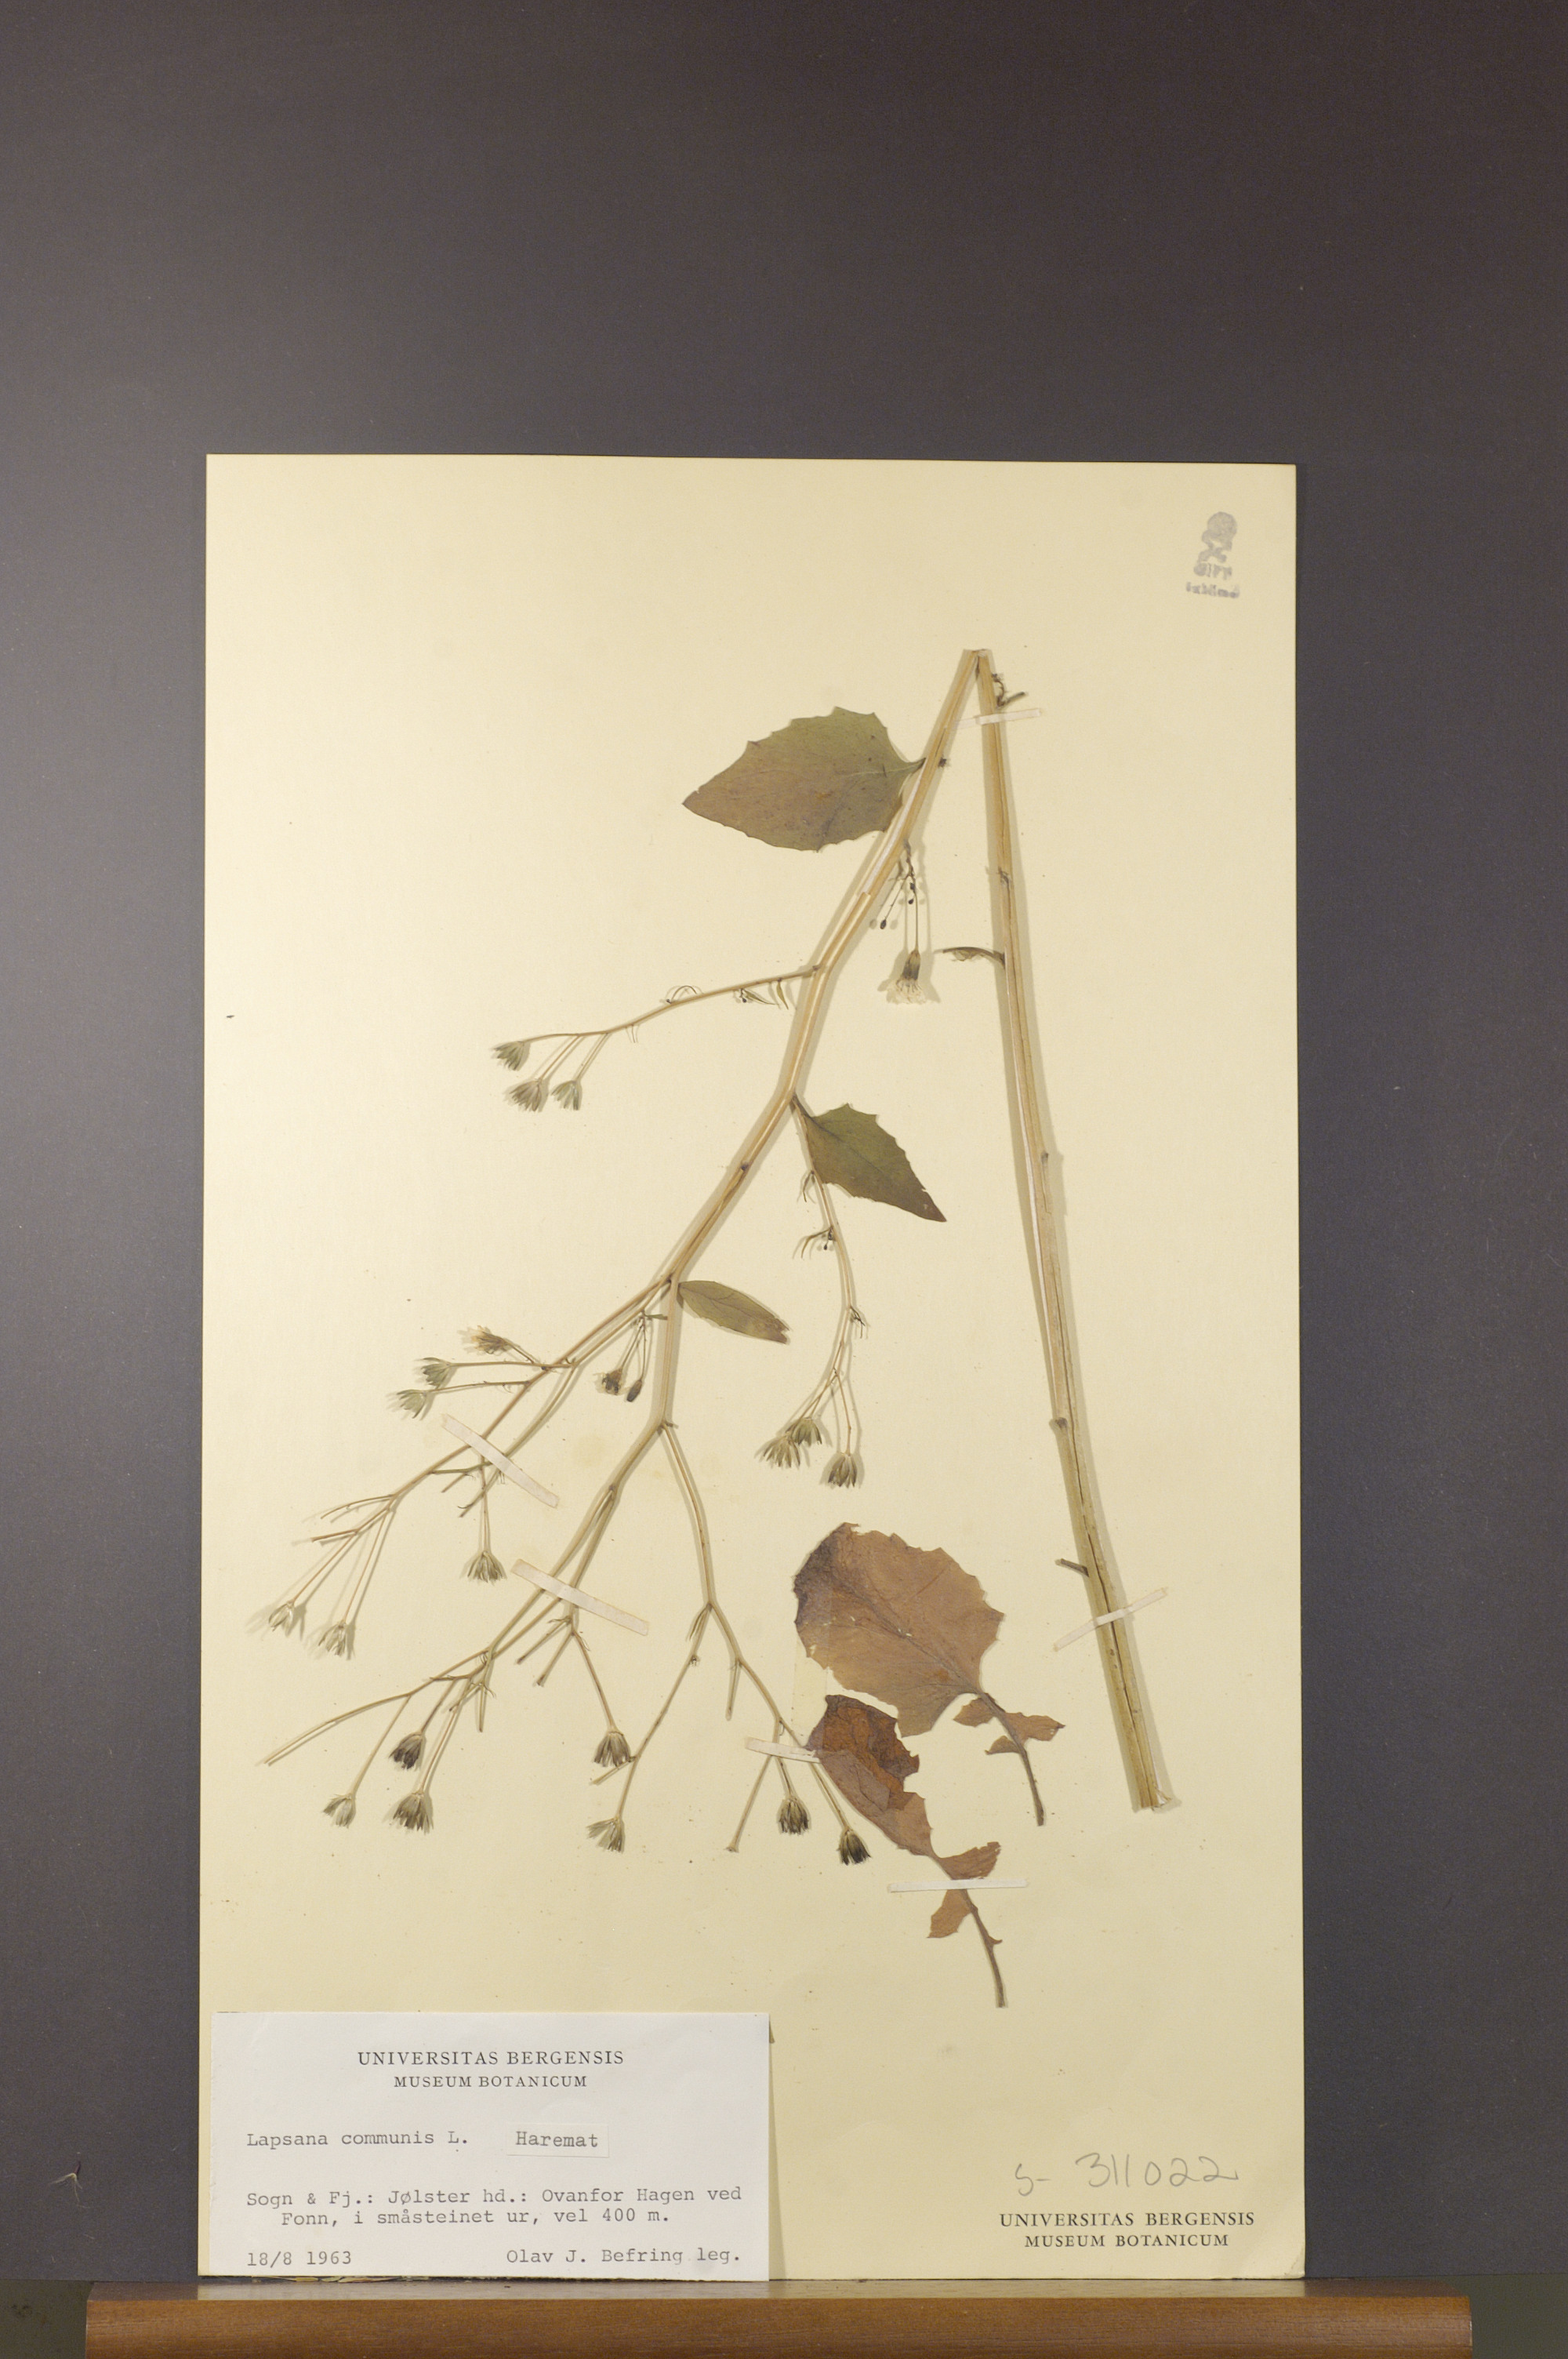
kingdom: Plantae
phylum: Tracheophyta
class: Magnoliopsida
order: Asterales
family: Asteraceae
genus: Lapsana
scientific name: Lapsana communis
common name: Nipplewort
